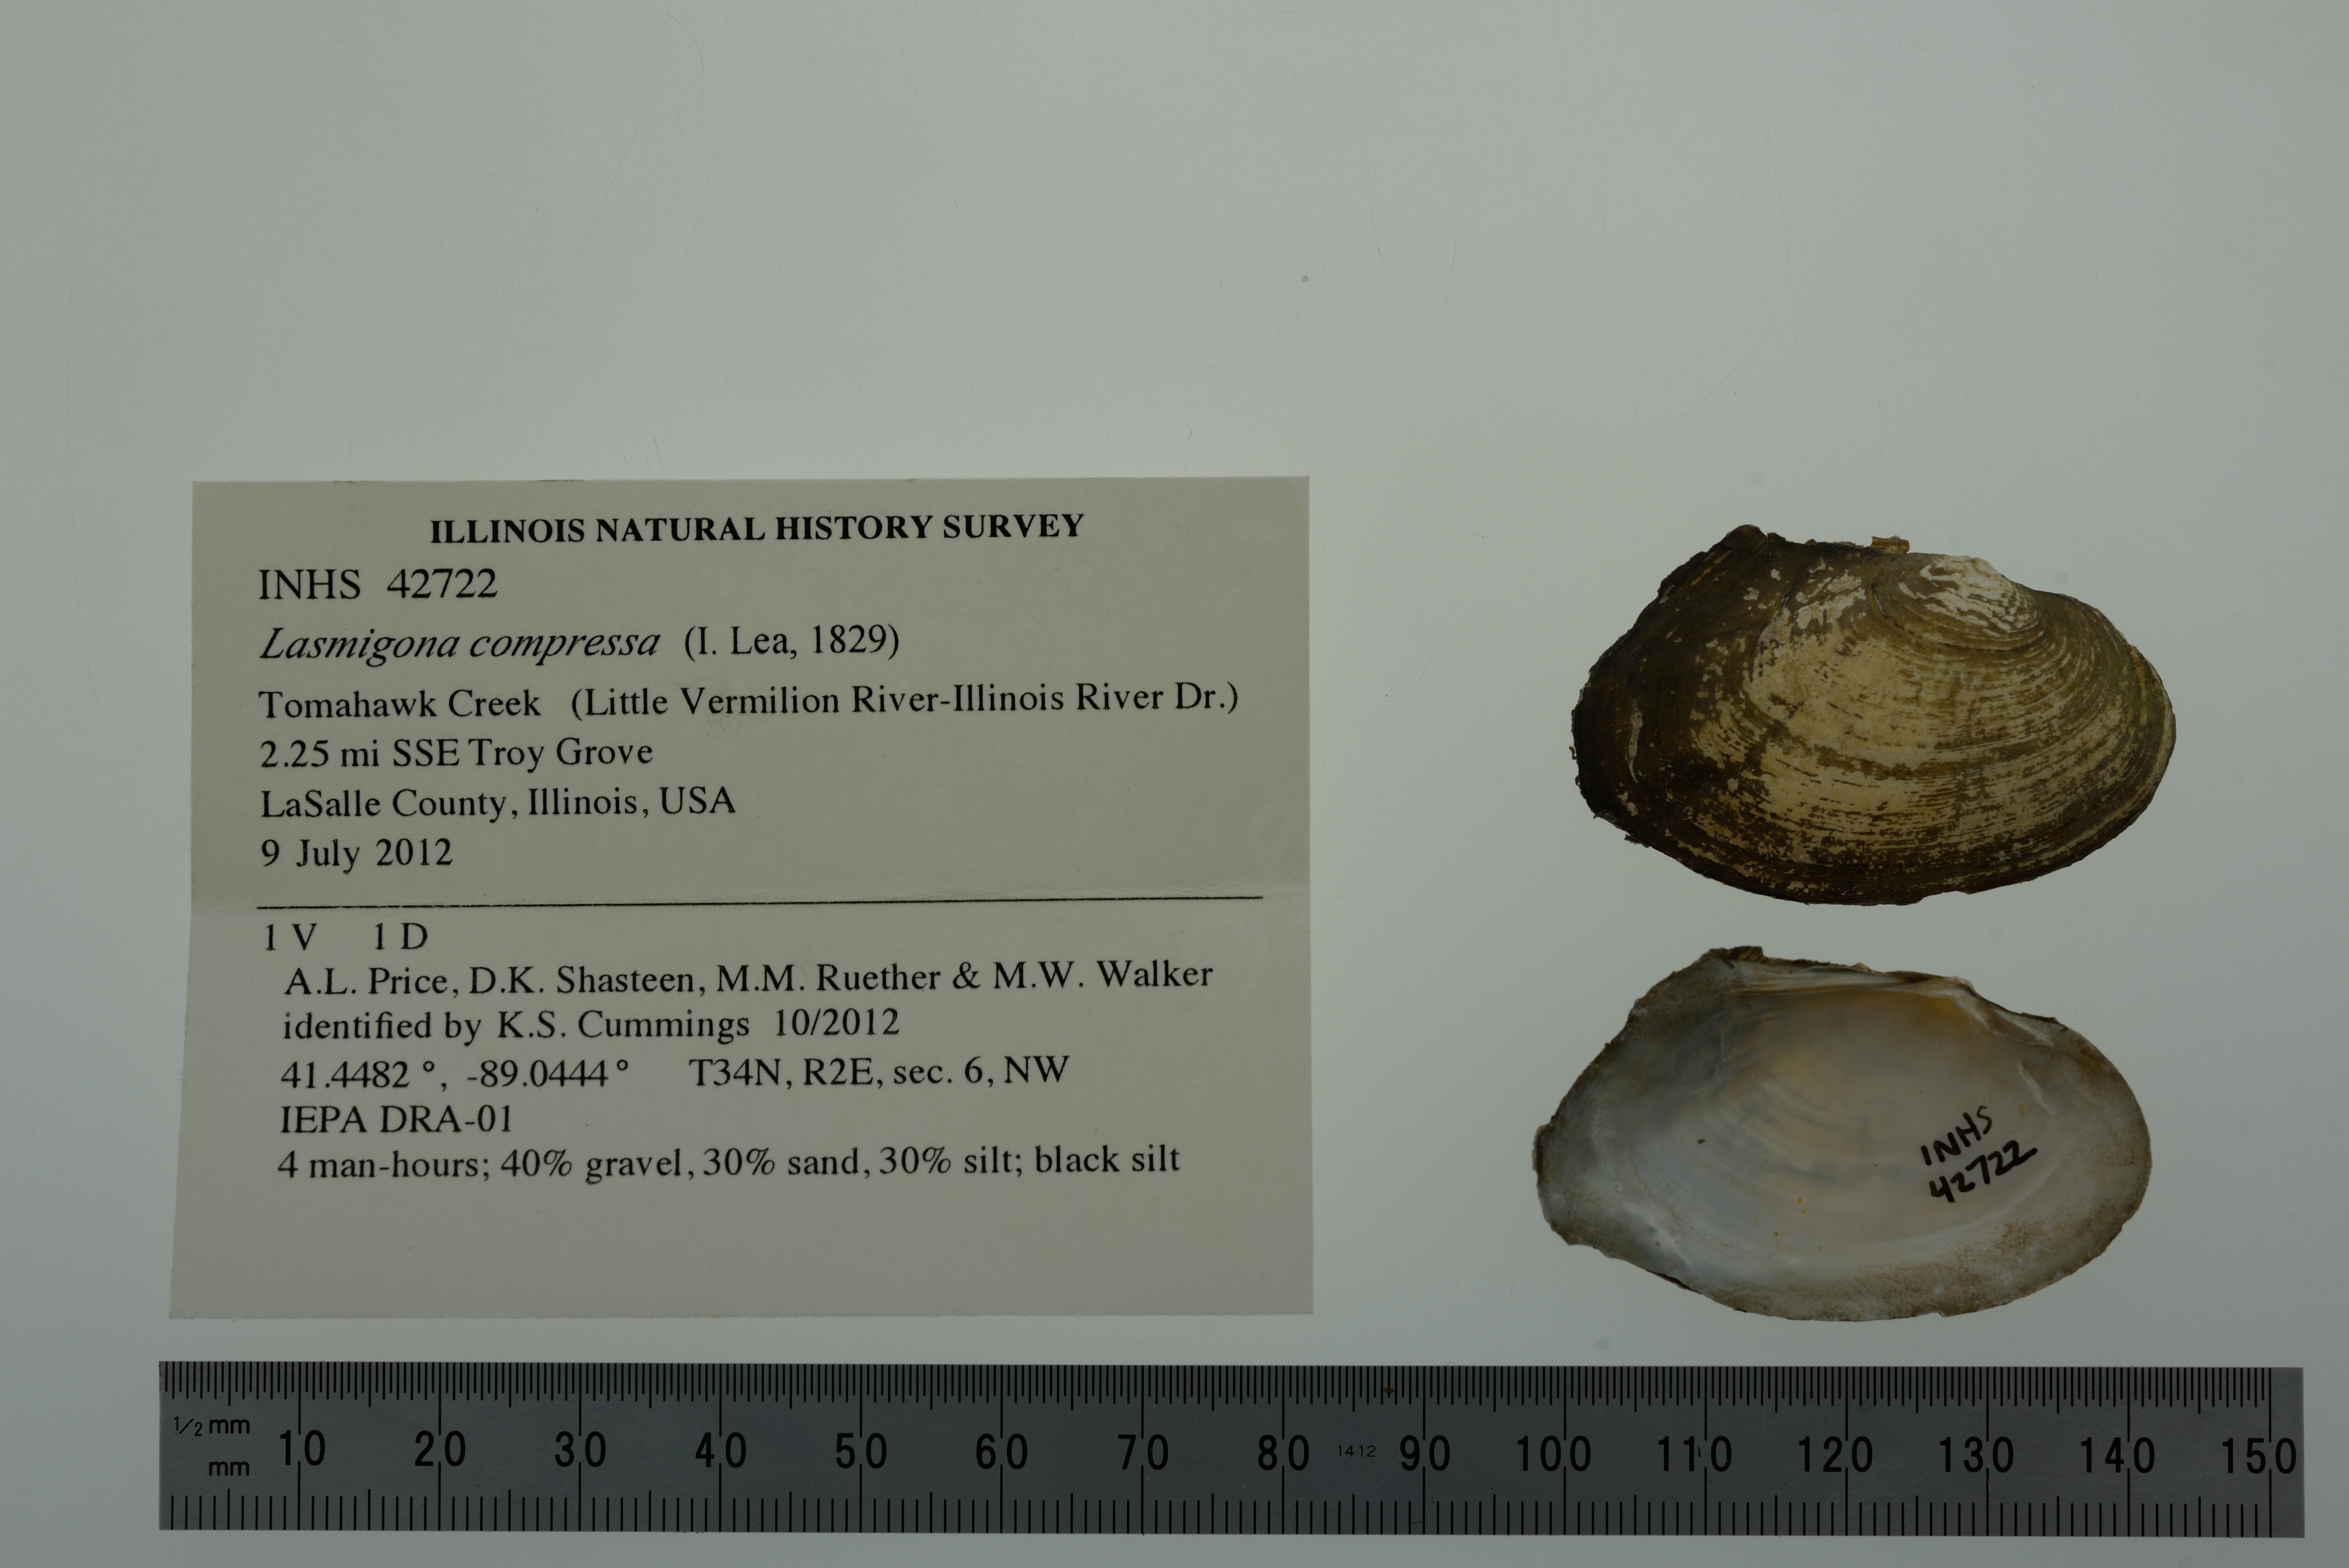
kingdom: Animalia
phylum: Mollusca
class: Bivalvia
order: Unionida
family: Unionidae
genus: Lasmigona
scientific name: Lasmigona compressa
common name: Creek heelsplitter
